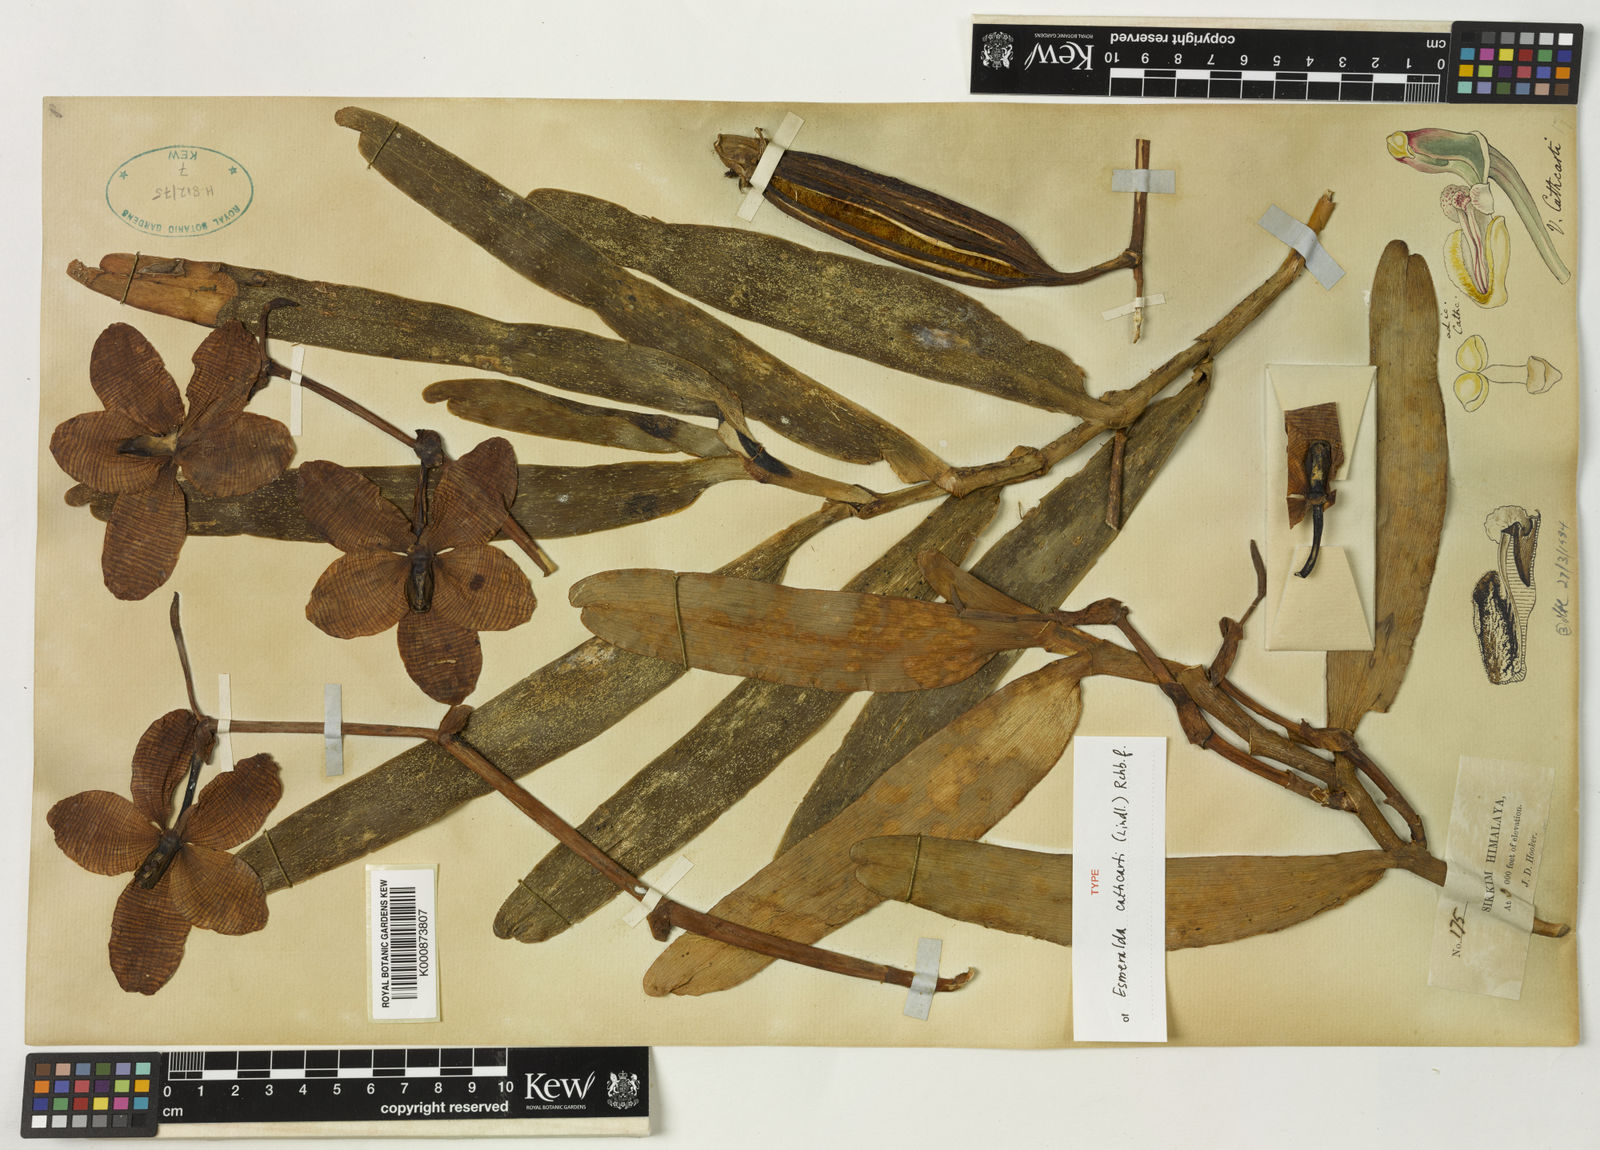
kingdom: Plantae
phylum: Tracheophyta
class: Liliopsida
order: Asparagales
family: Orchidaceae
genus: Arachnis
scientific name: Arachnis cathcartii
